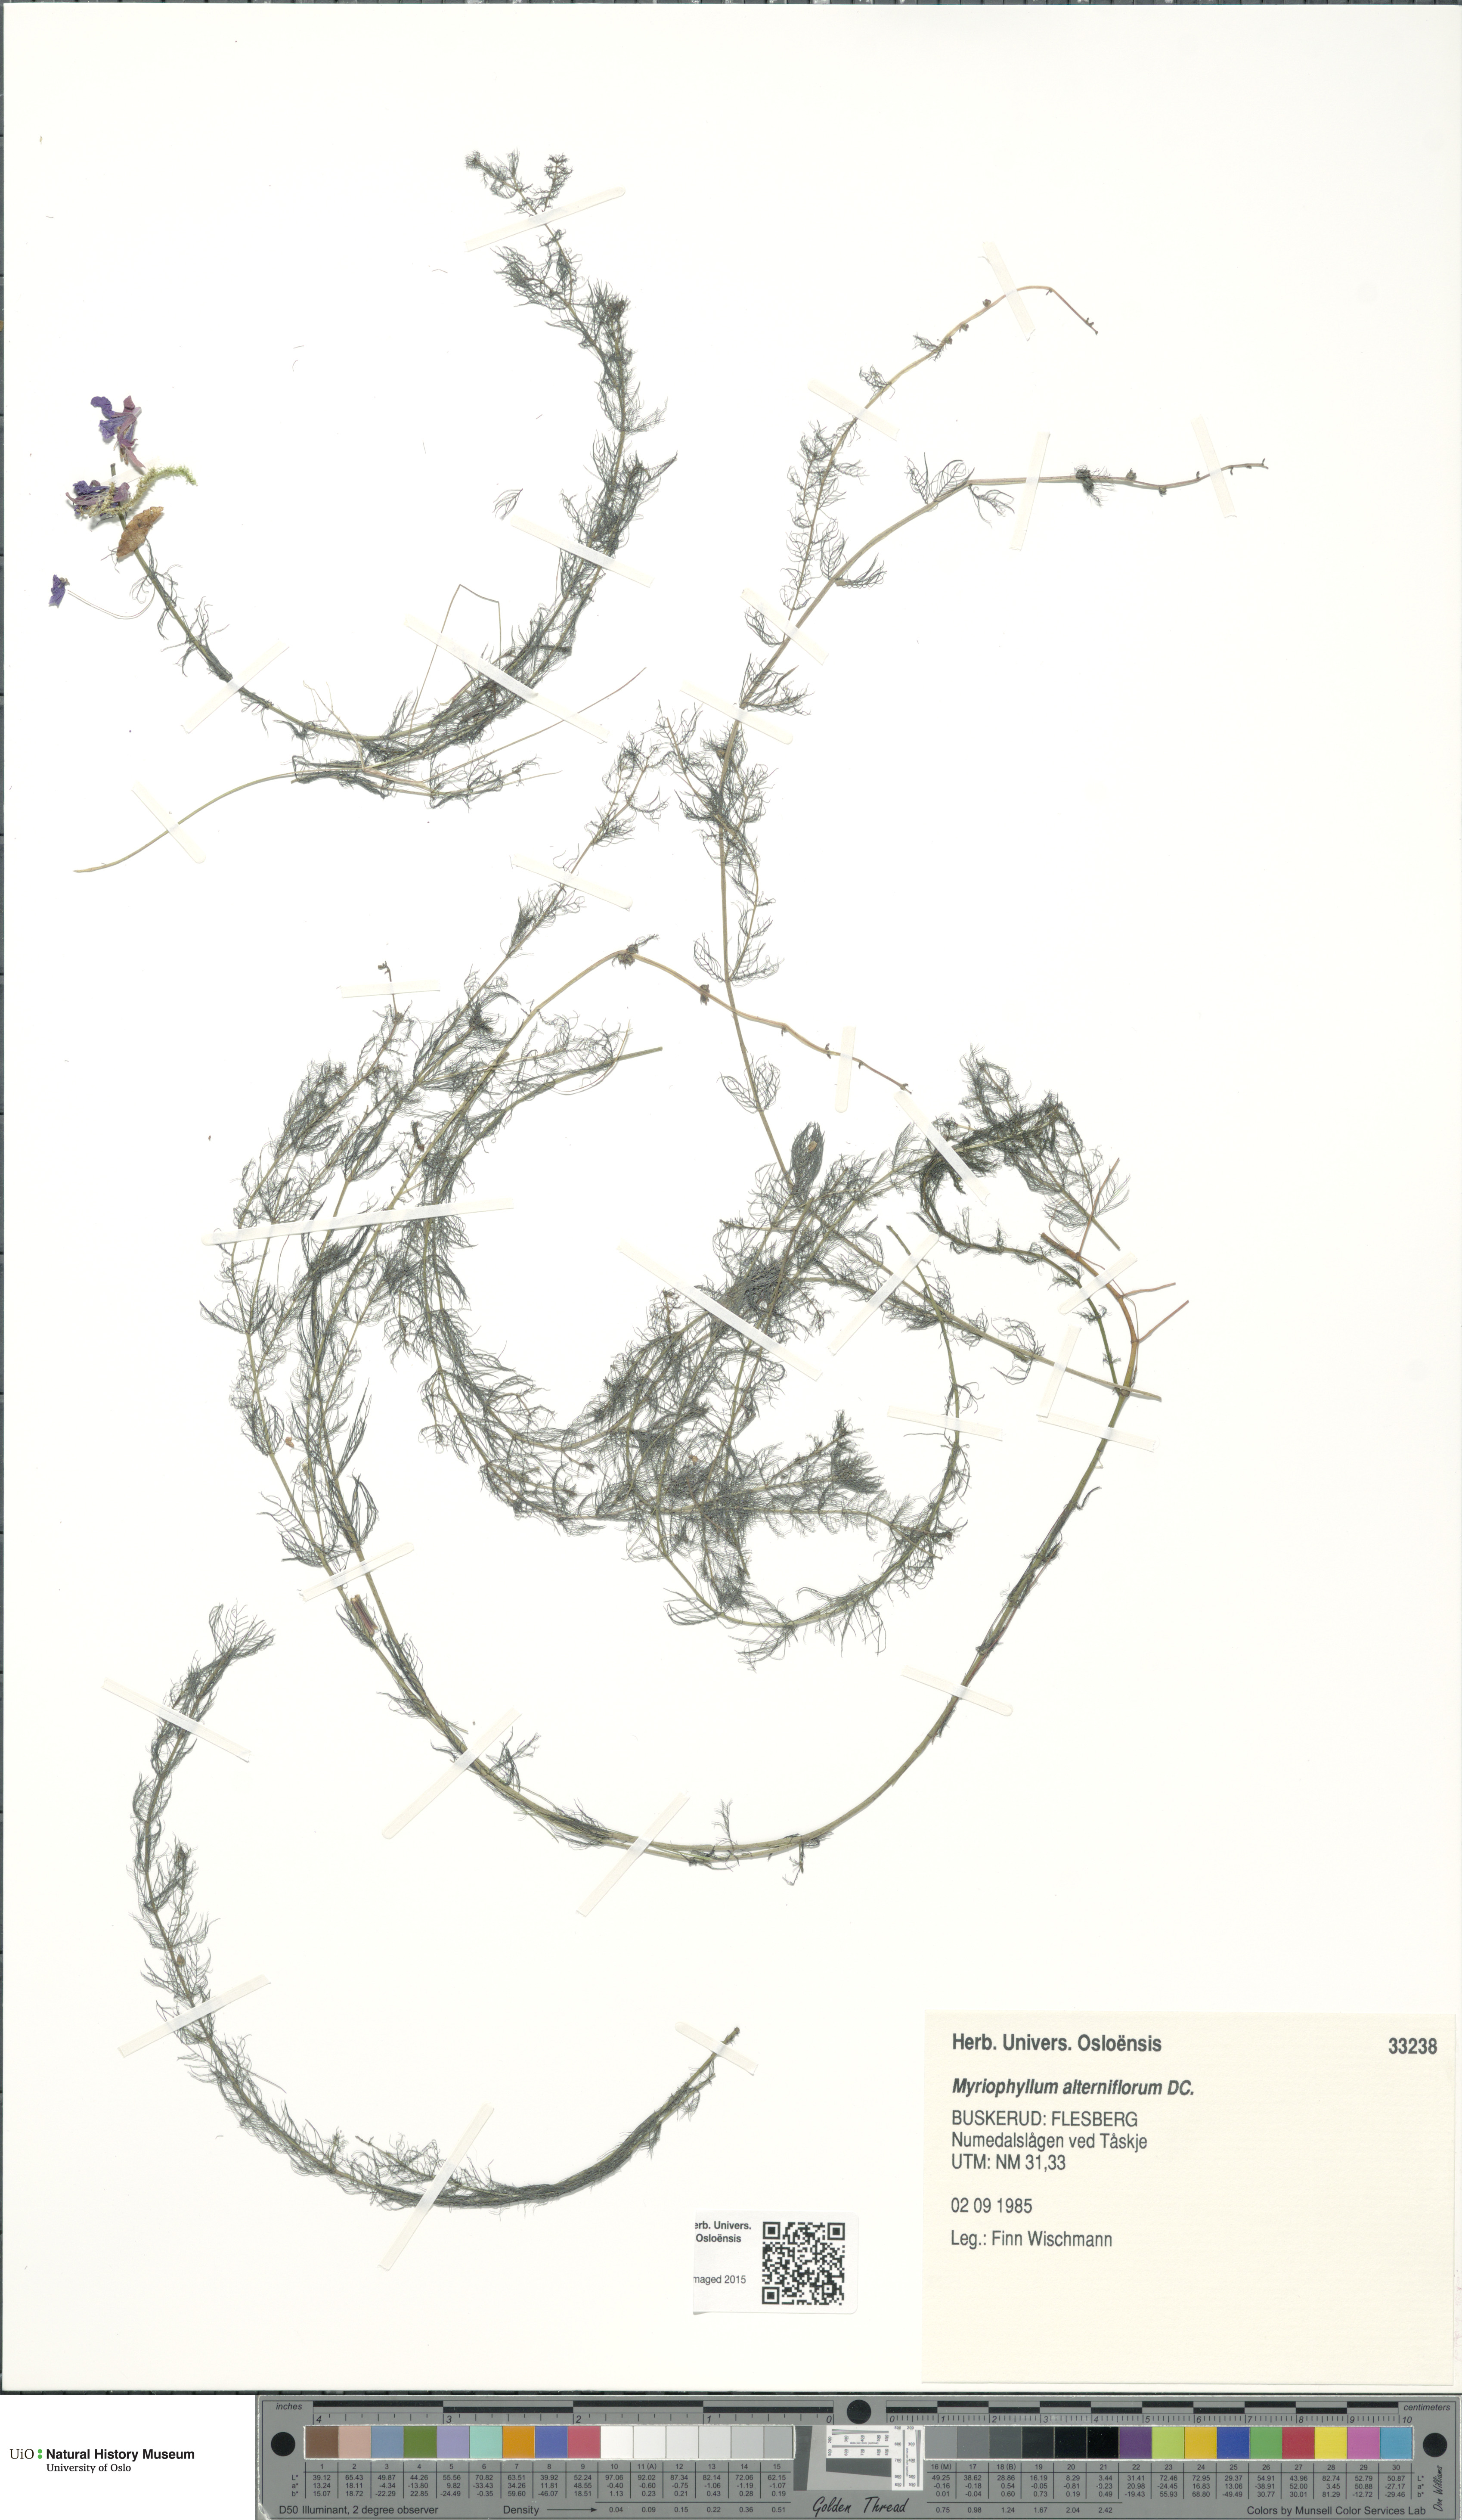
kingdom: Plantae
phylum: Tracheophyta
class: Magnoliopsida
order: Saxifragales
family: Haloragaceae
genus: Myriophyllum
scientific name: Myriophyllum alterniflorum
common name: Alternate water-milfoil
